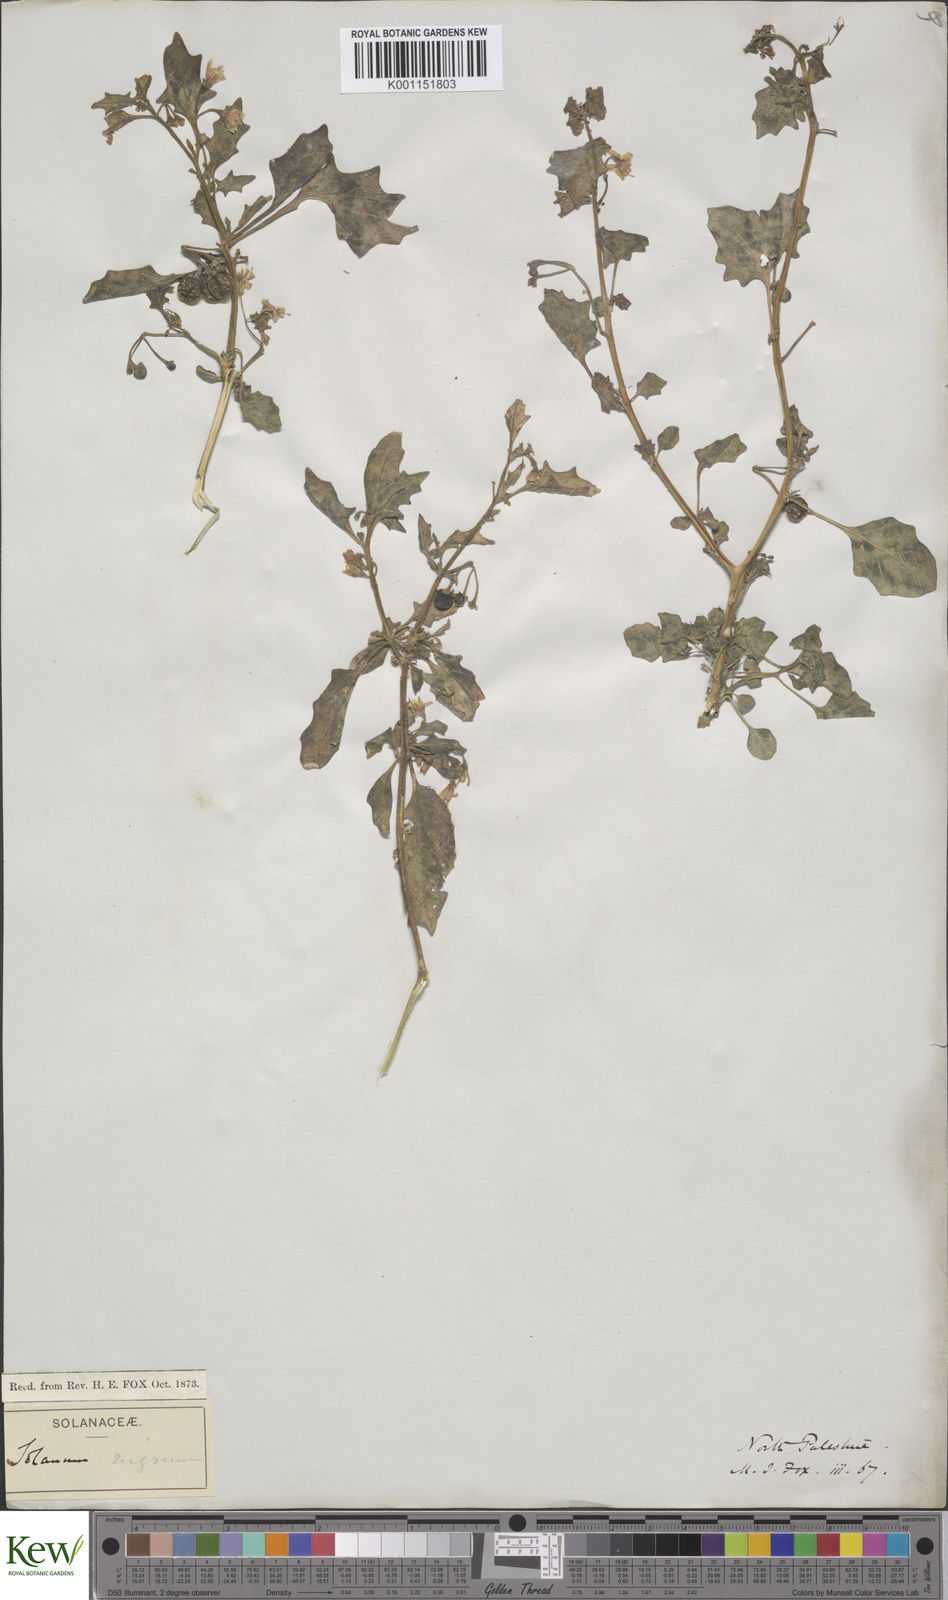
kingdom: Plantae
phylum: Tracheophyta
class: Magnoliopsida
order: Solanales
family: Solanaceae
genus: Solanum
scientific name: Solanum villosum
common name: Red nightshade
